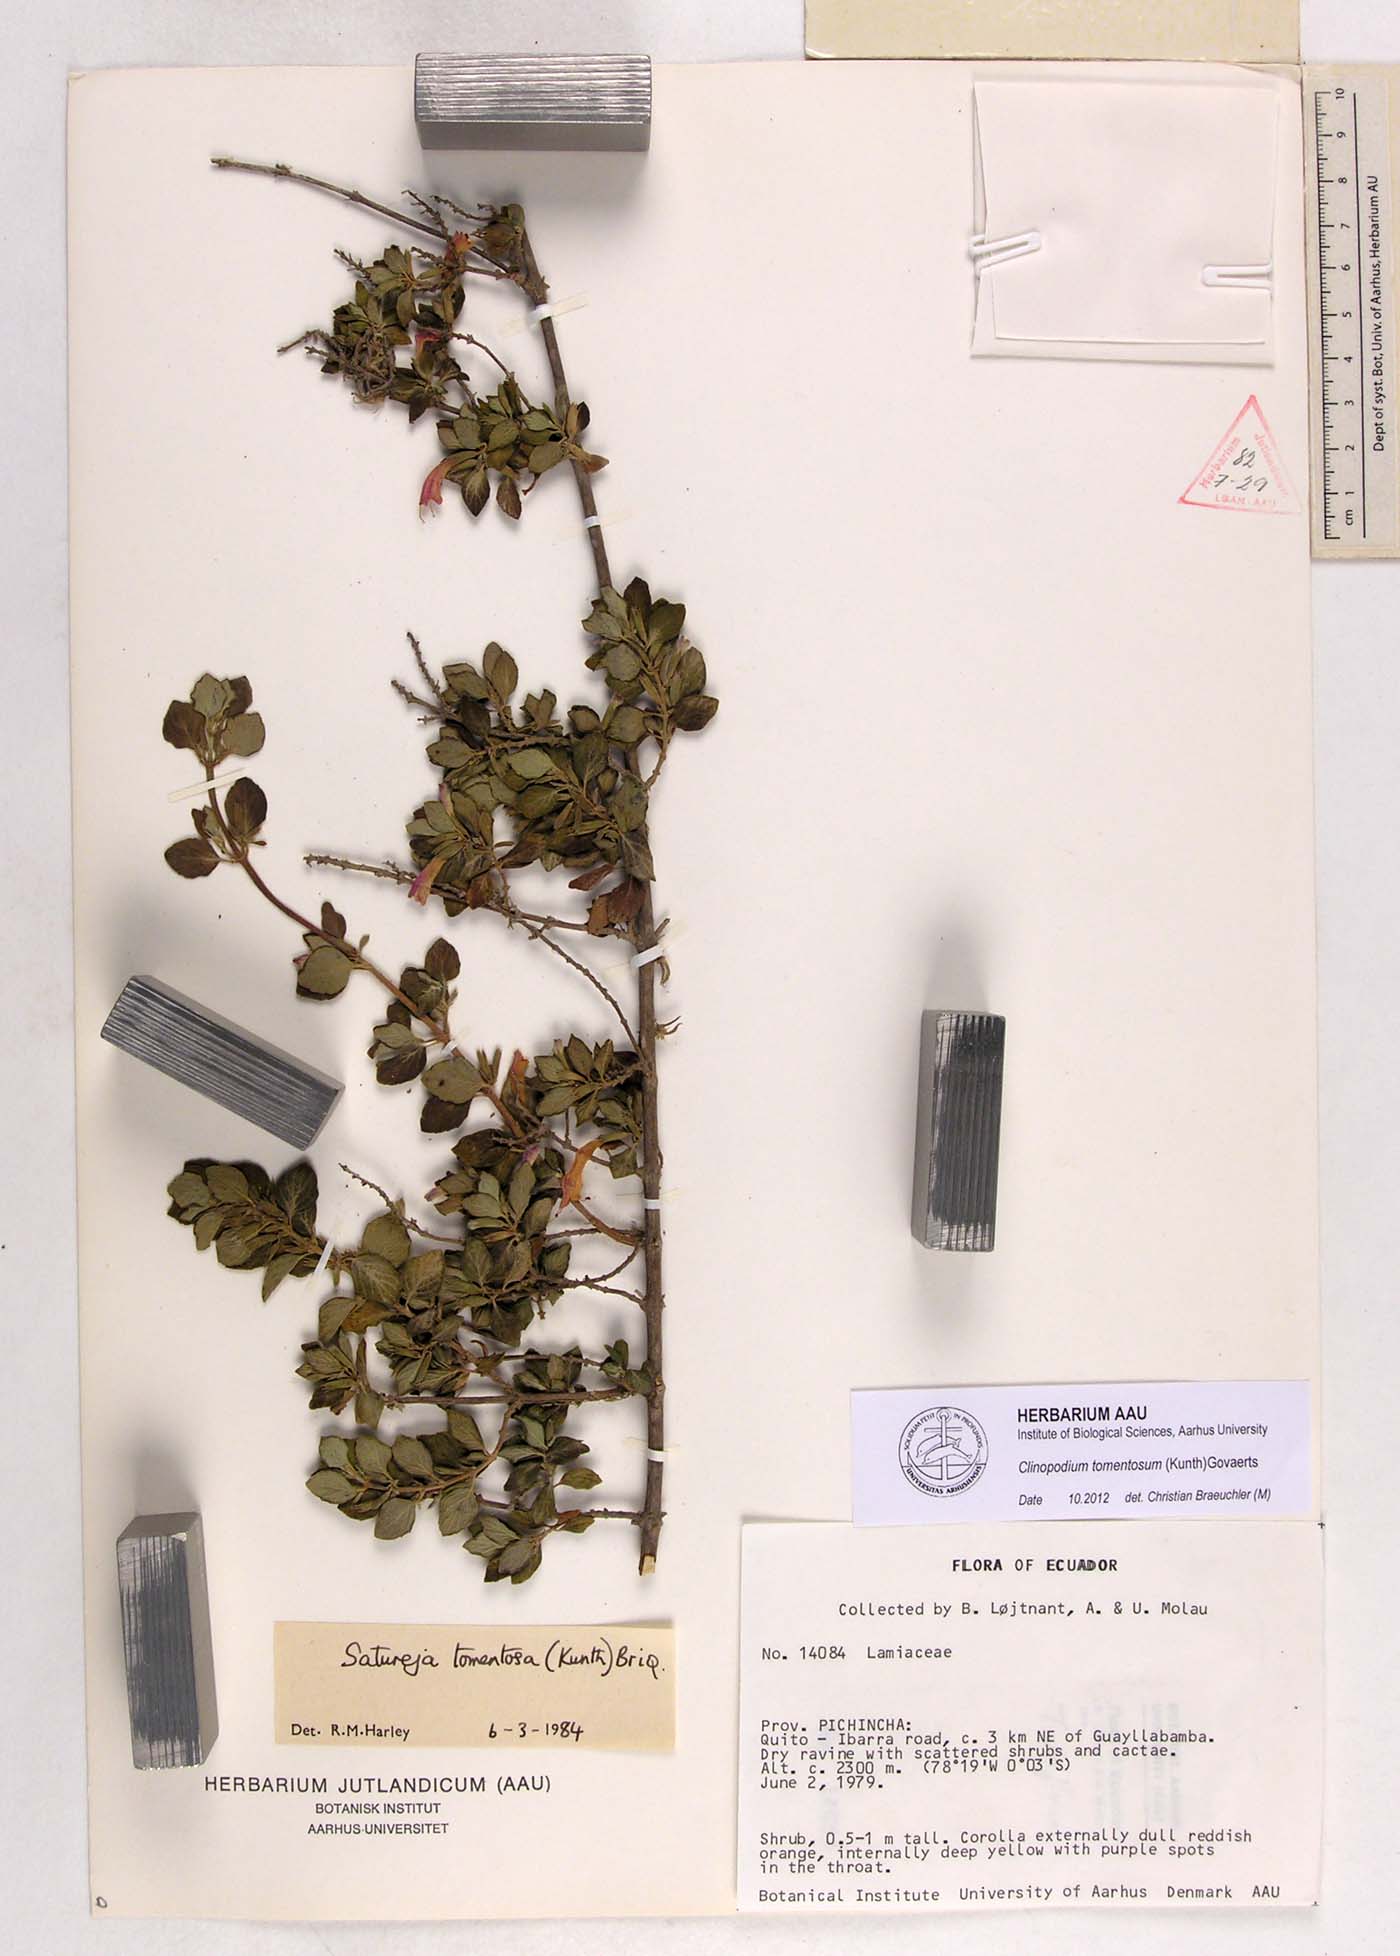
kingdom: Plantae
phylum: Tracheophyta
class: Magnoliopsida
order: Lamiales
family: Lamiaceae
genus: Clinopodium
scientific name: Clinopodium tomentosum
